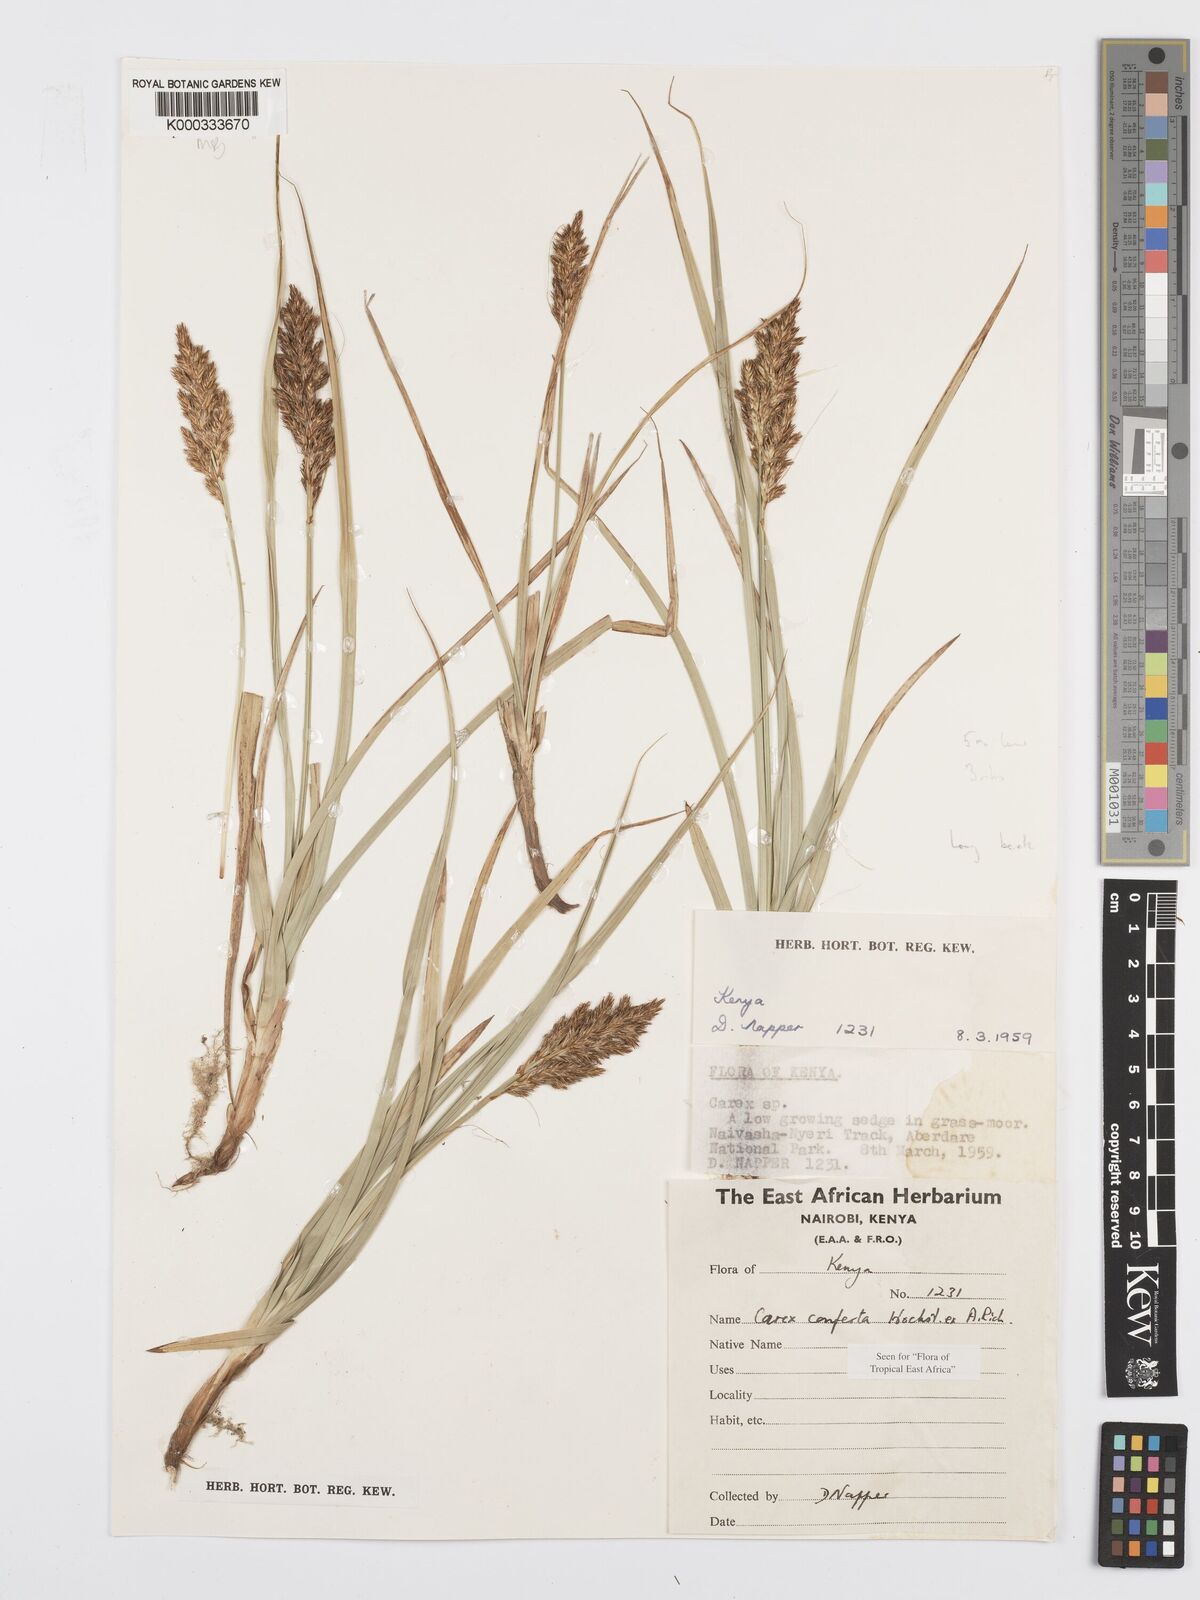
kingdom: Plantae
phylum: Tracheophyta
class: Liliopsida
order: Poales
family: Cyperaceae
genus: Carex
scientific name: Carex conferta
